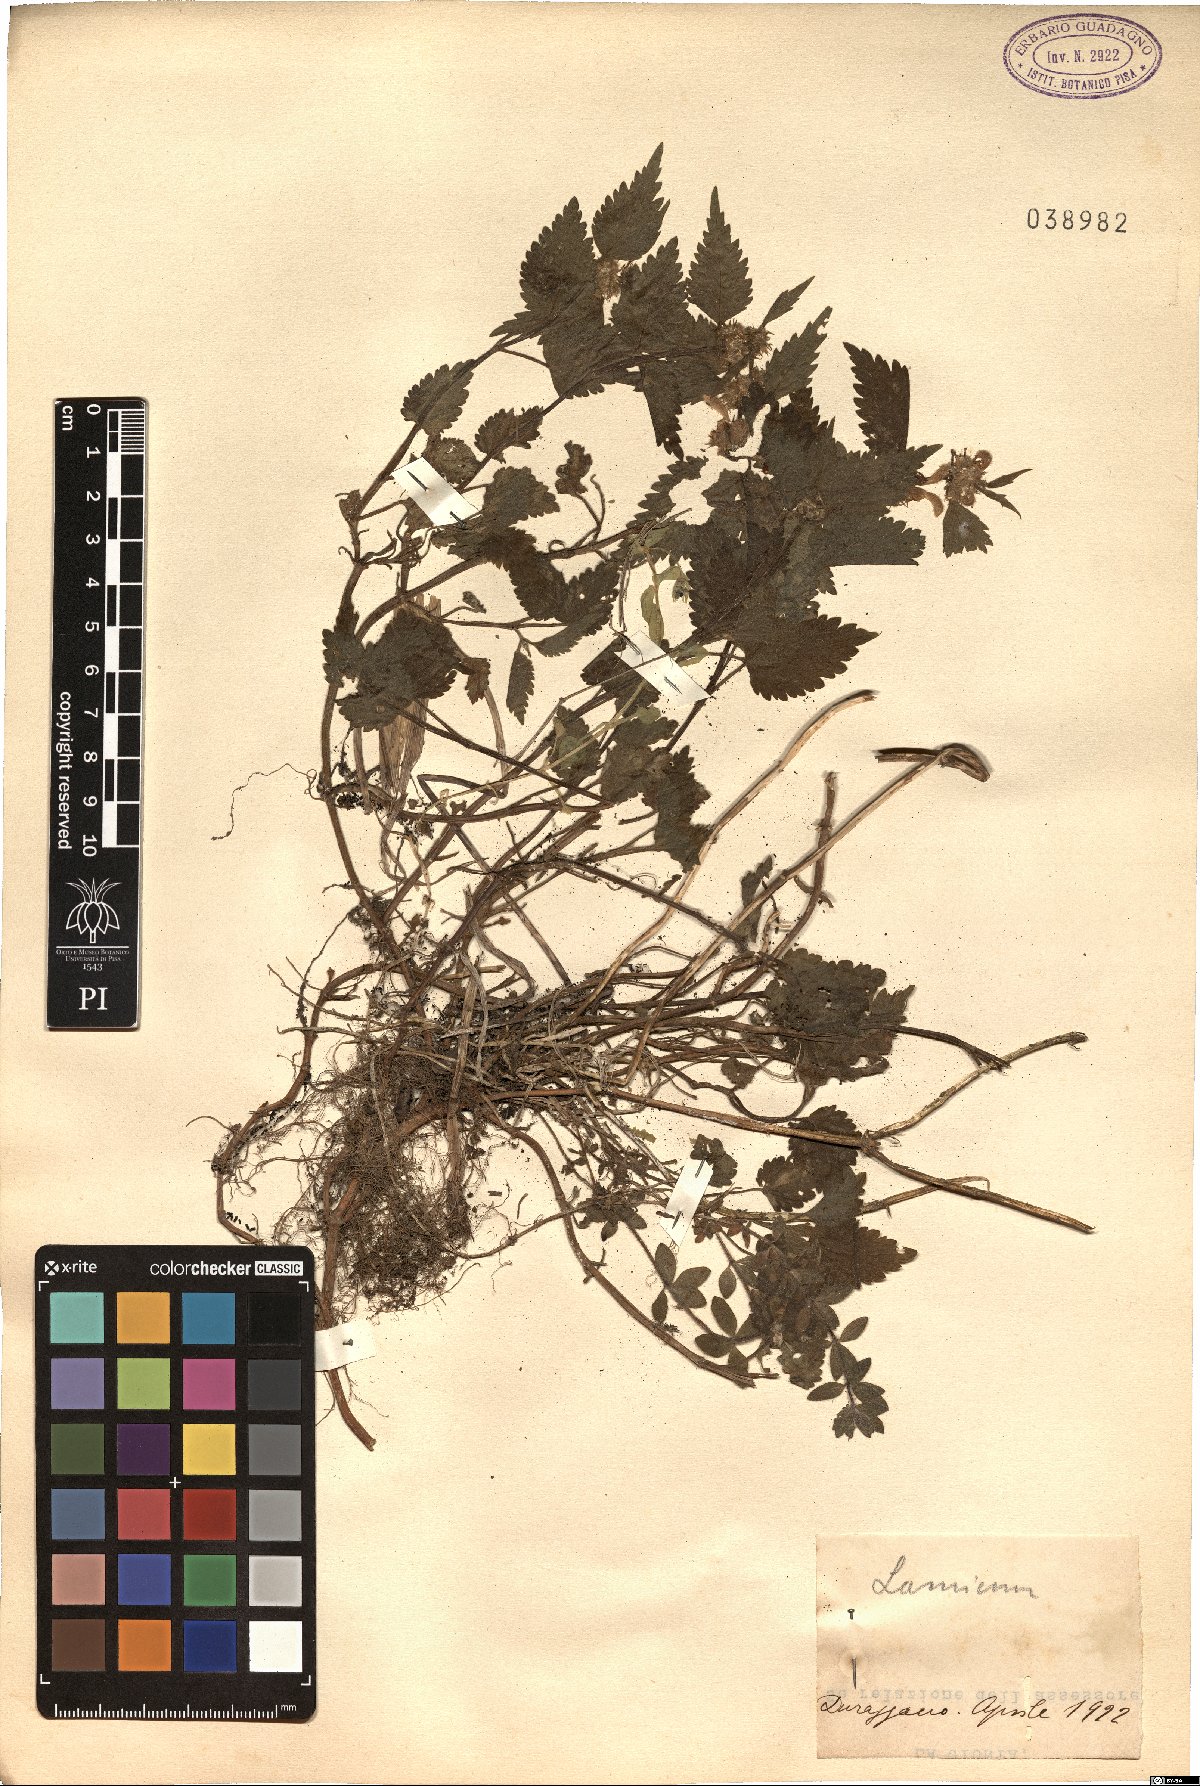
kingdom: Plantae
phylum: Tracheophyta
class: Magnoliopsida
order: Lamiales
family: Lamiaceae
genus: Lamium
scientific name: Lamium
